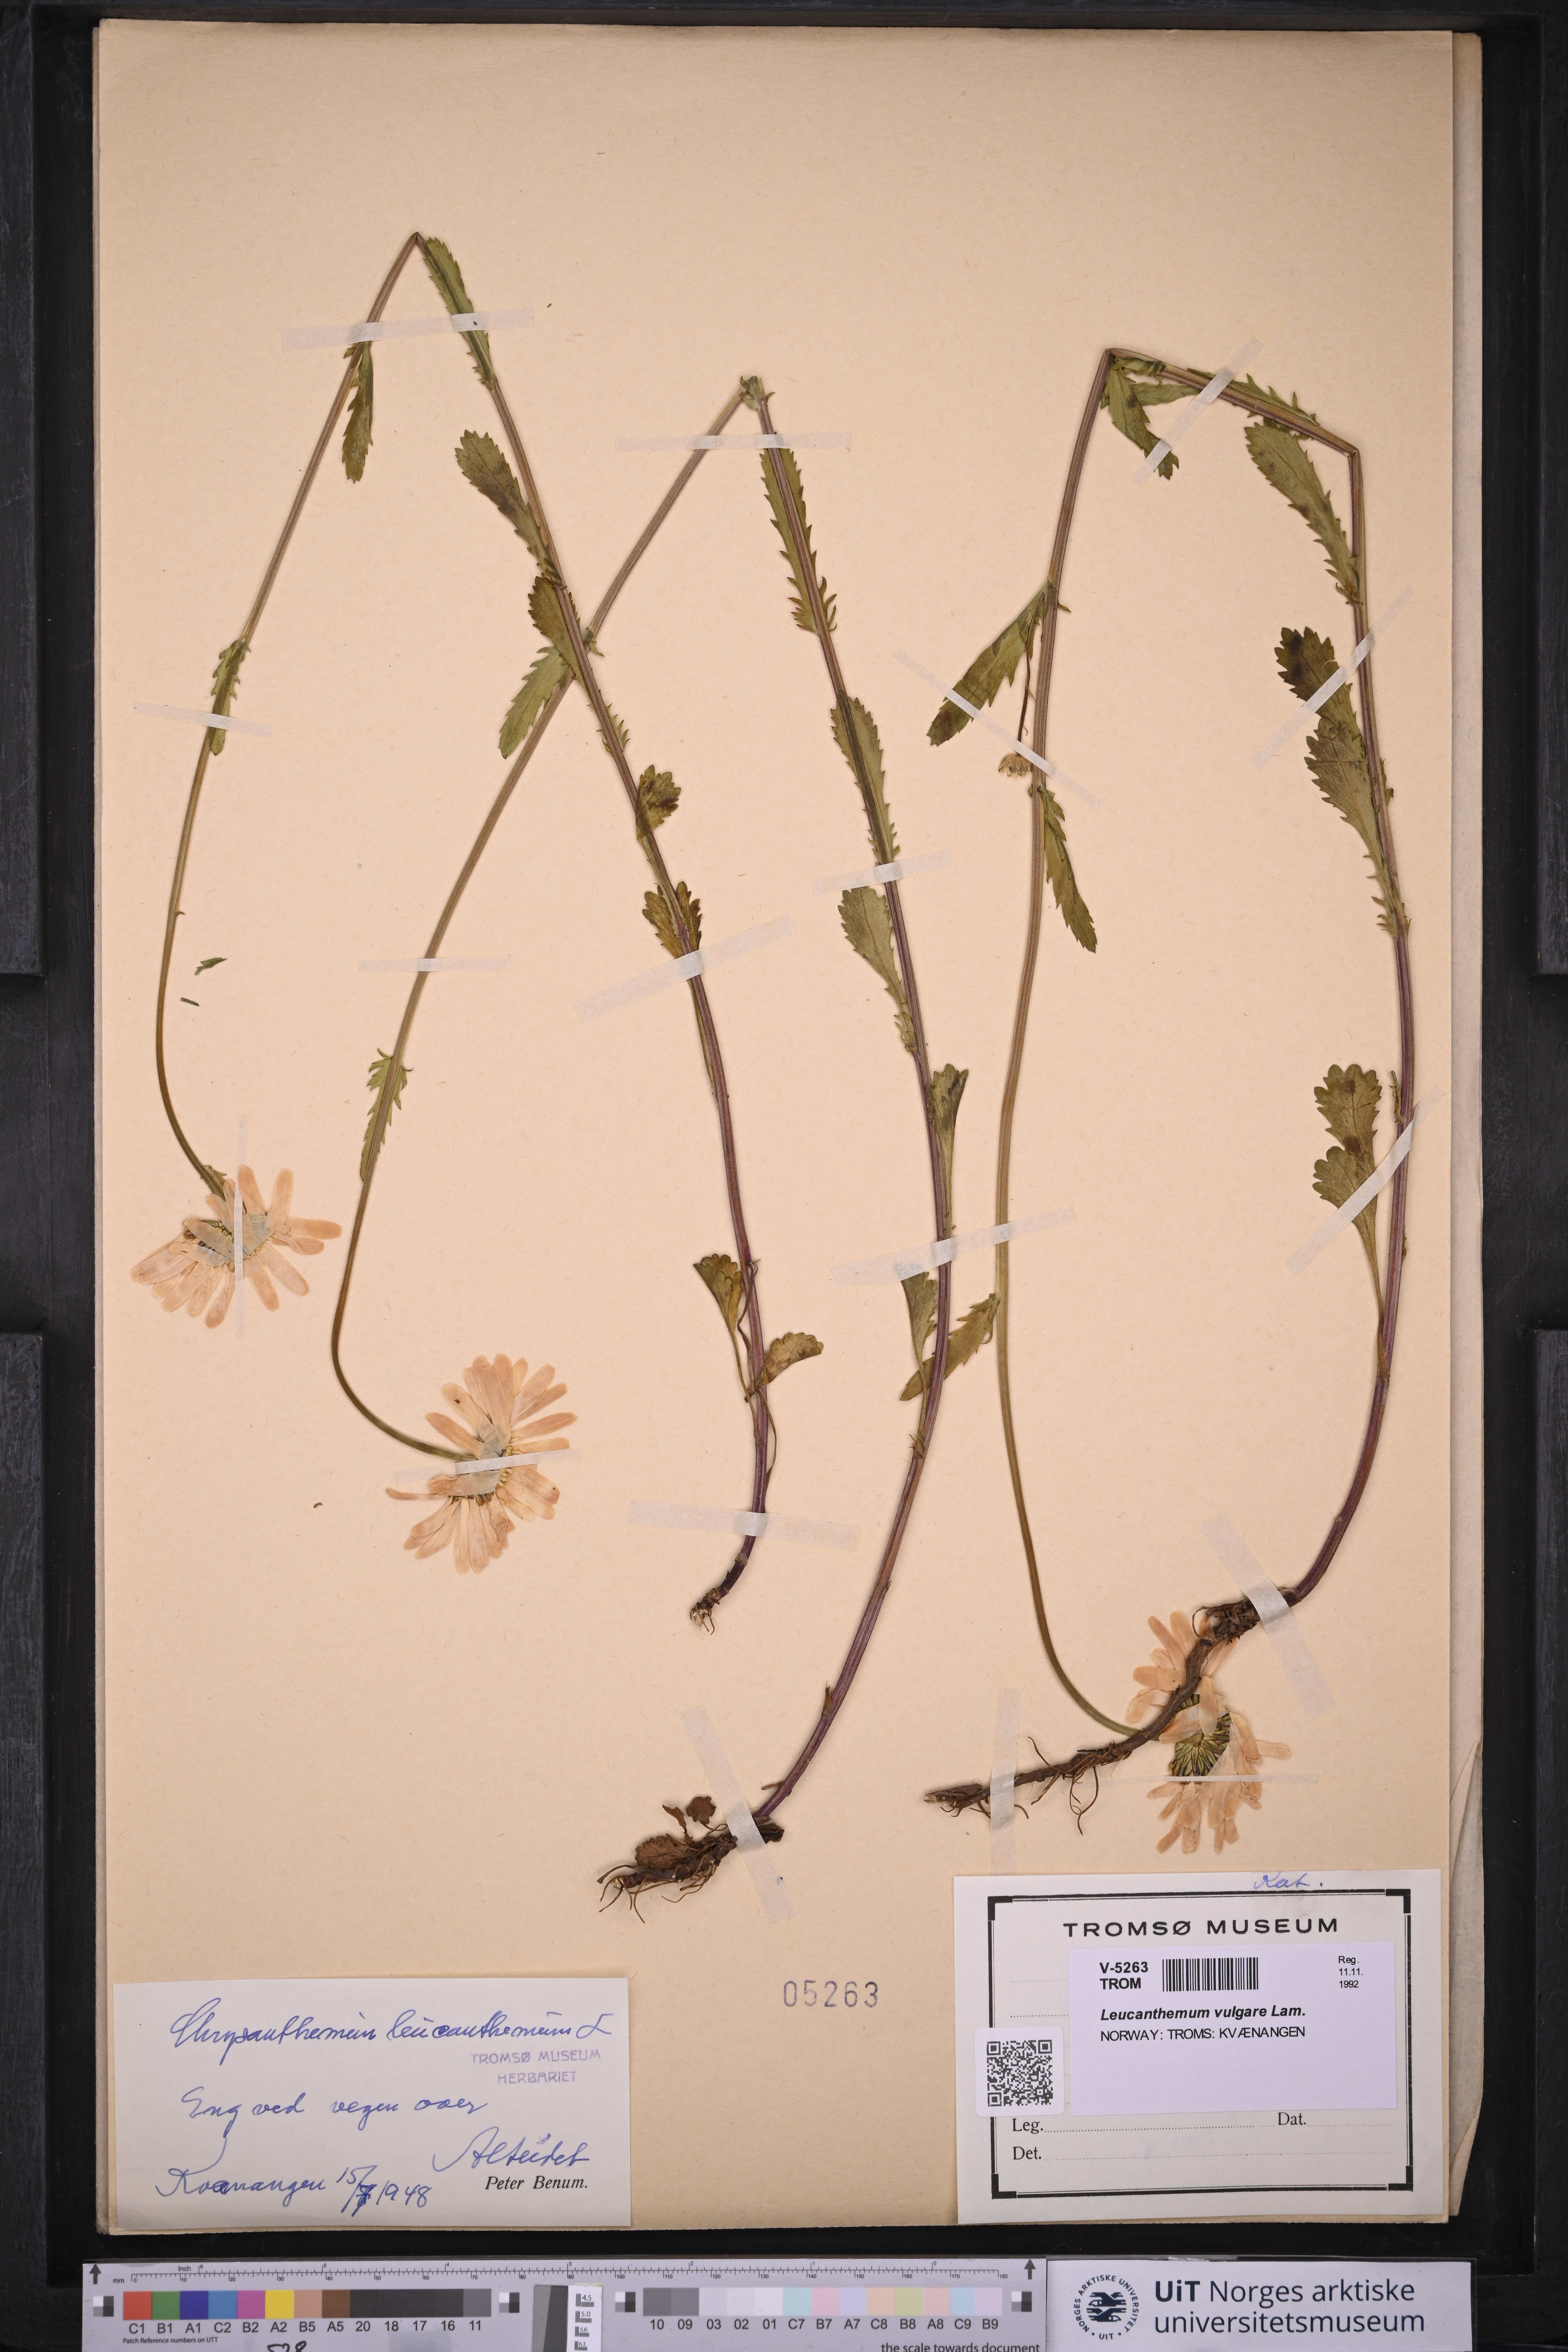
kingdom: Plantae
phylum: Tracheophyta
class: Magnoliopsida
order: Asterales
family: Asteraceae
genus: Leucanthemum
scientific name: Leucanthemum vulgare
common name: Oxeye daisy
